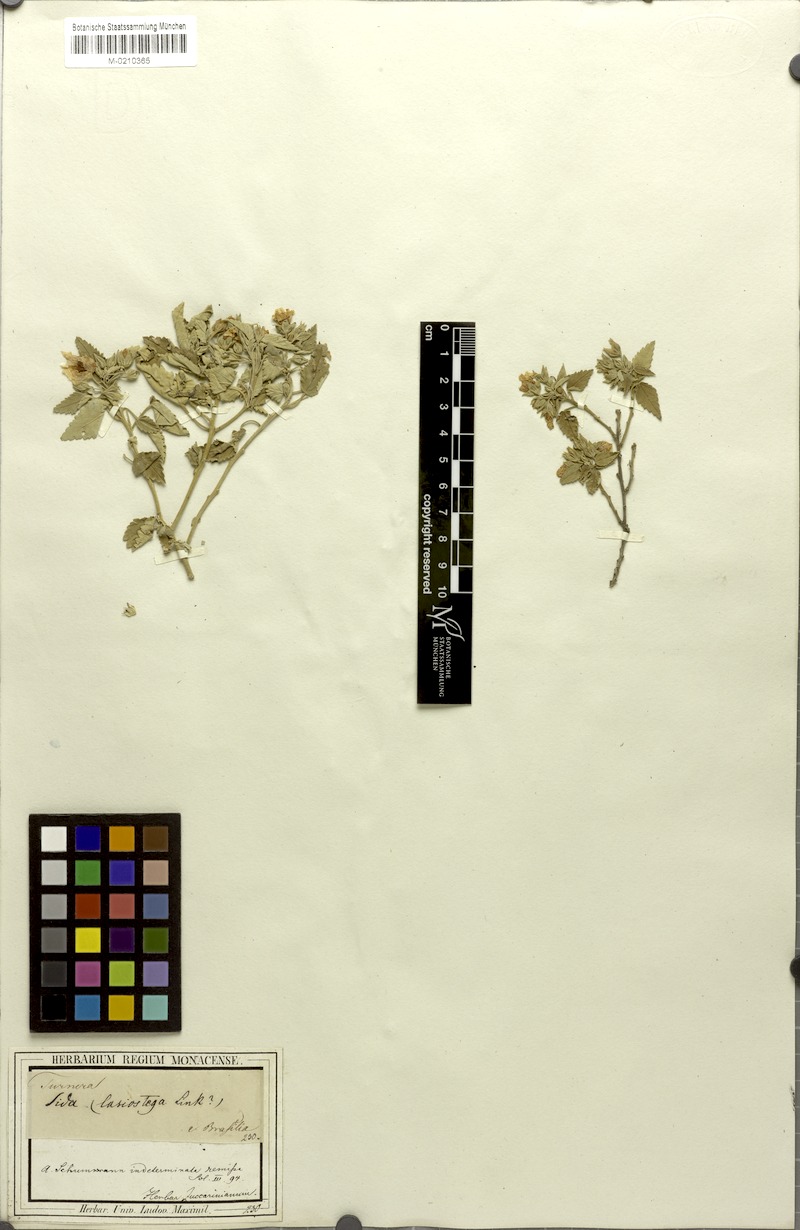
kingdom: Plantae
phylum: Tracheophyta
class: Magnoliopsida
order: Malvales
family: Malvaceae
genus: Sida
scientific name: Sida
